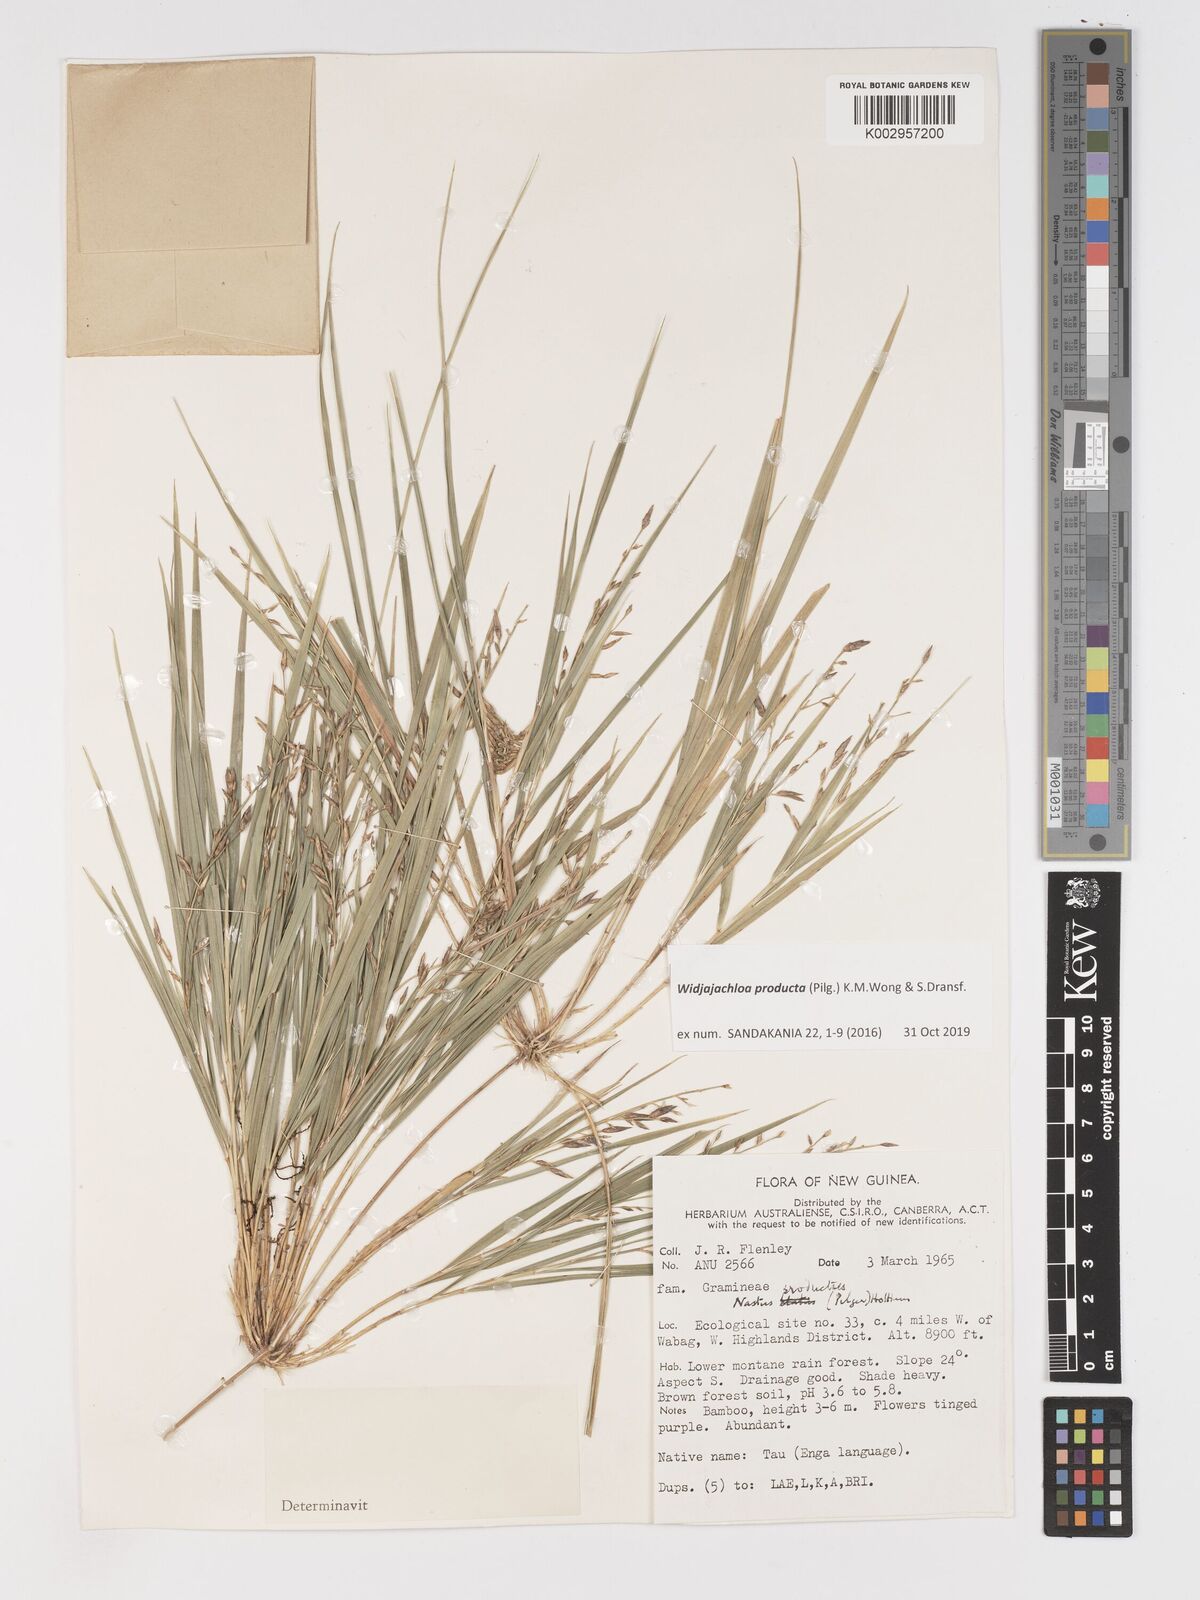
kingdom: Plantae
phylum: Tracheophyta
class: Liliopsida
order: Poales
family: Poaceae
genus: Widjajachloa
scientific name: Widjajachloa
